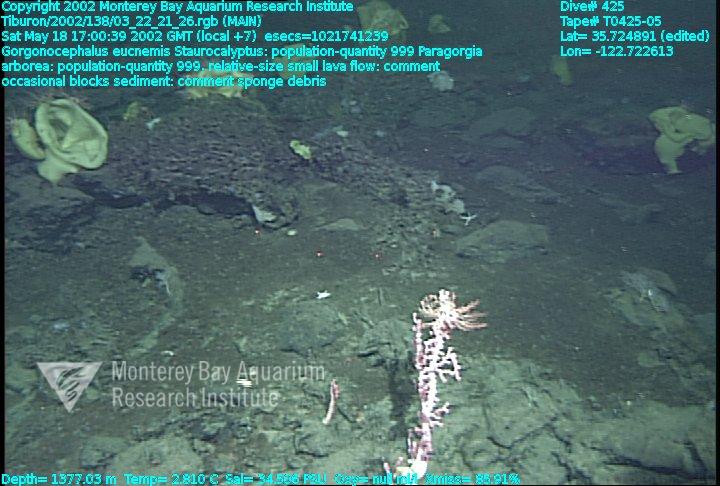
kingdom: Animalia
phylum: Porifera
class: Hexactinellida
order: Lyssacinosida
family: Rossellidae
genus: Staurocalyptus
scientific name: Staurocalyptus
